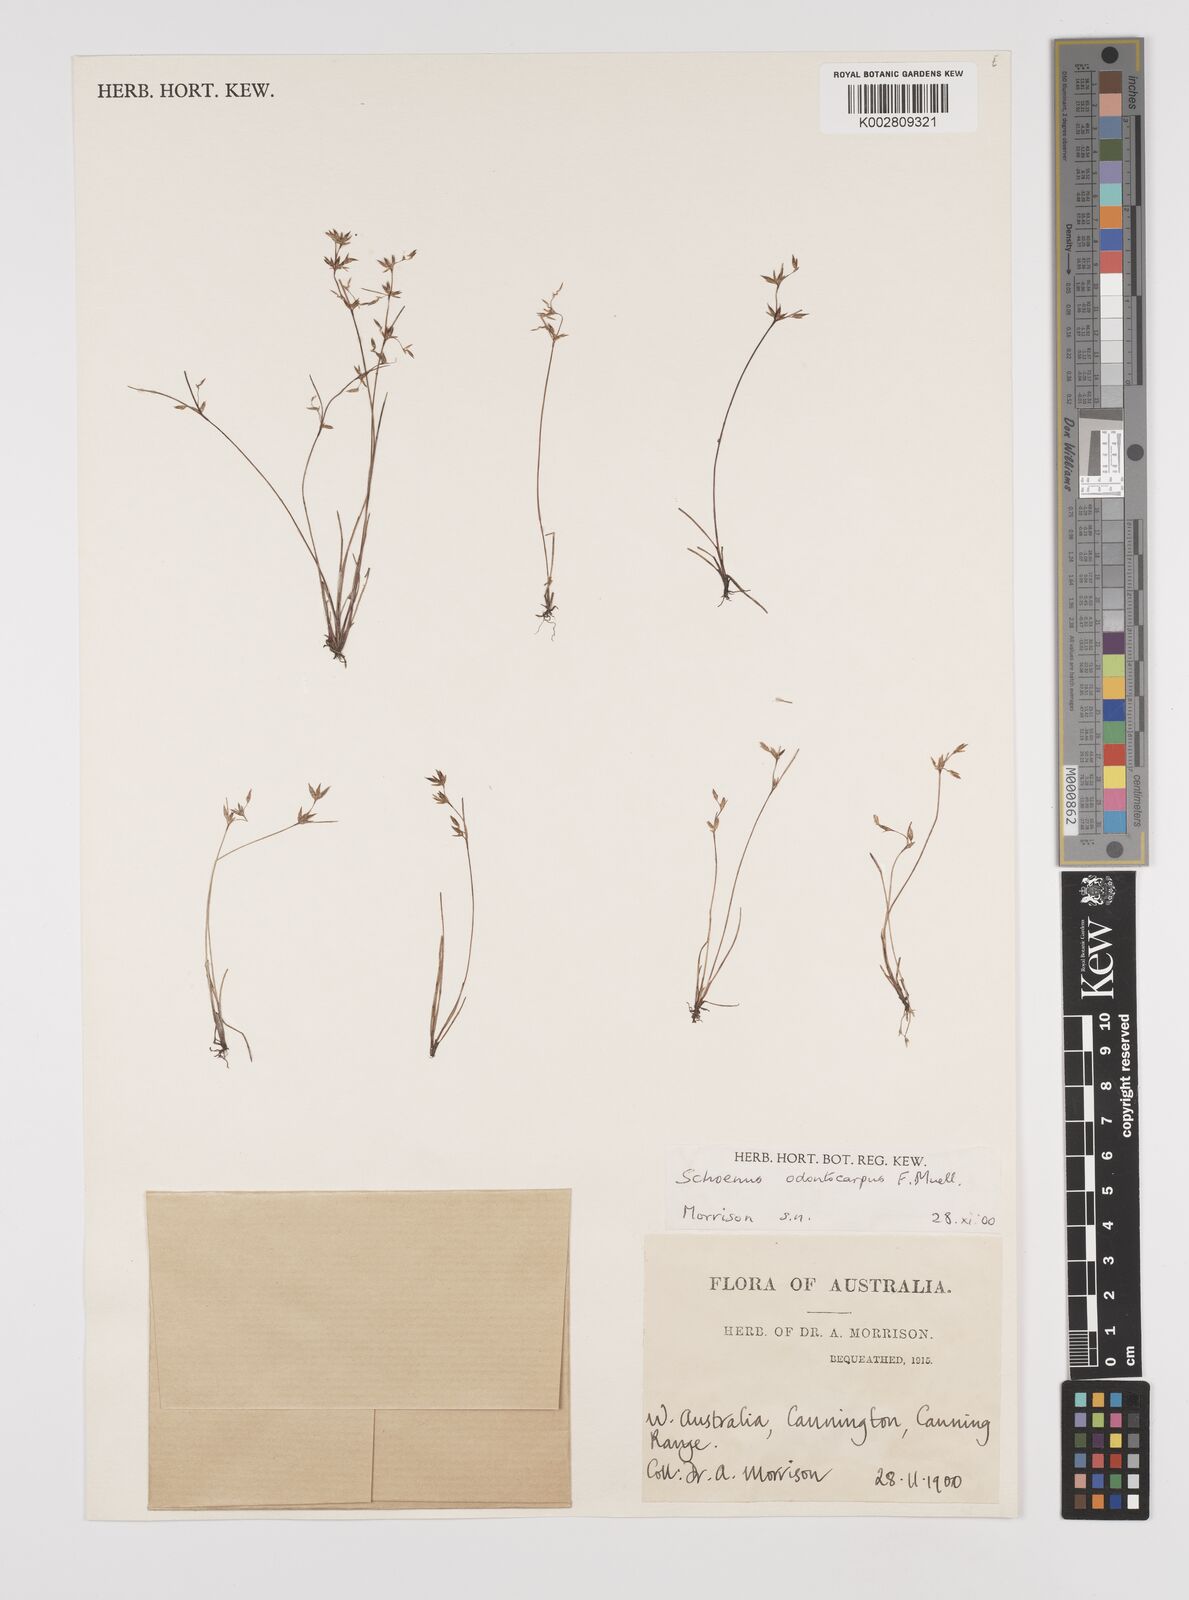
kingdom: Plantae
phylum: Tracheophyta
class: Liliopsida
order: Poales
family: Cyperaceae
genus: Schoenus
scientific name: Schoenus odontocarpus
